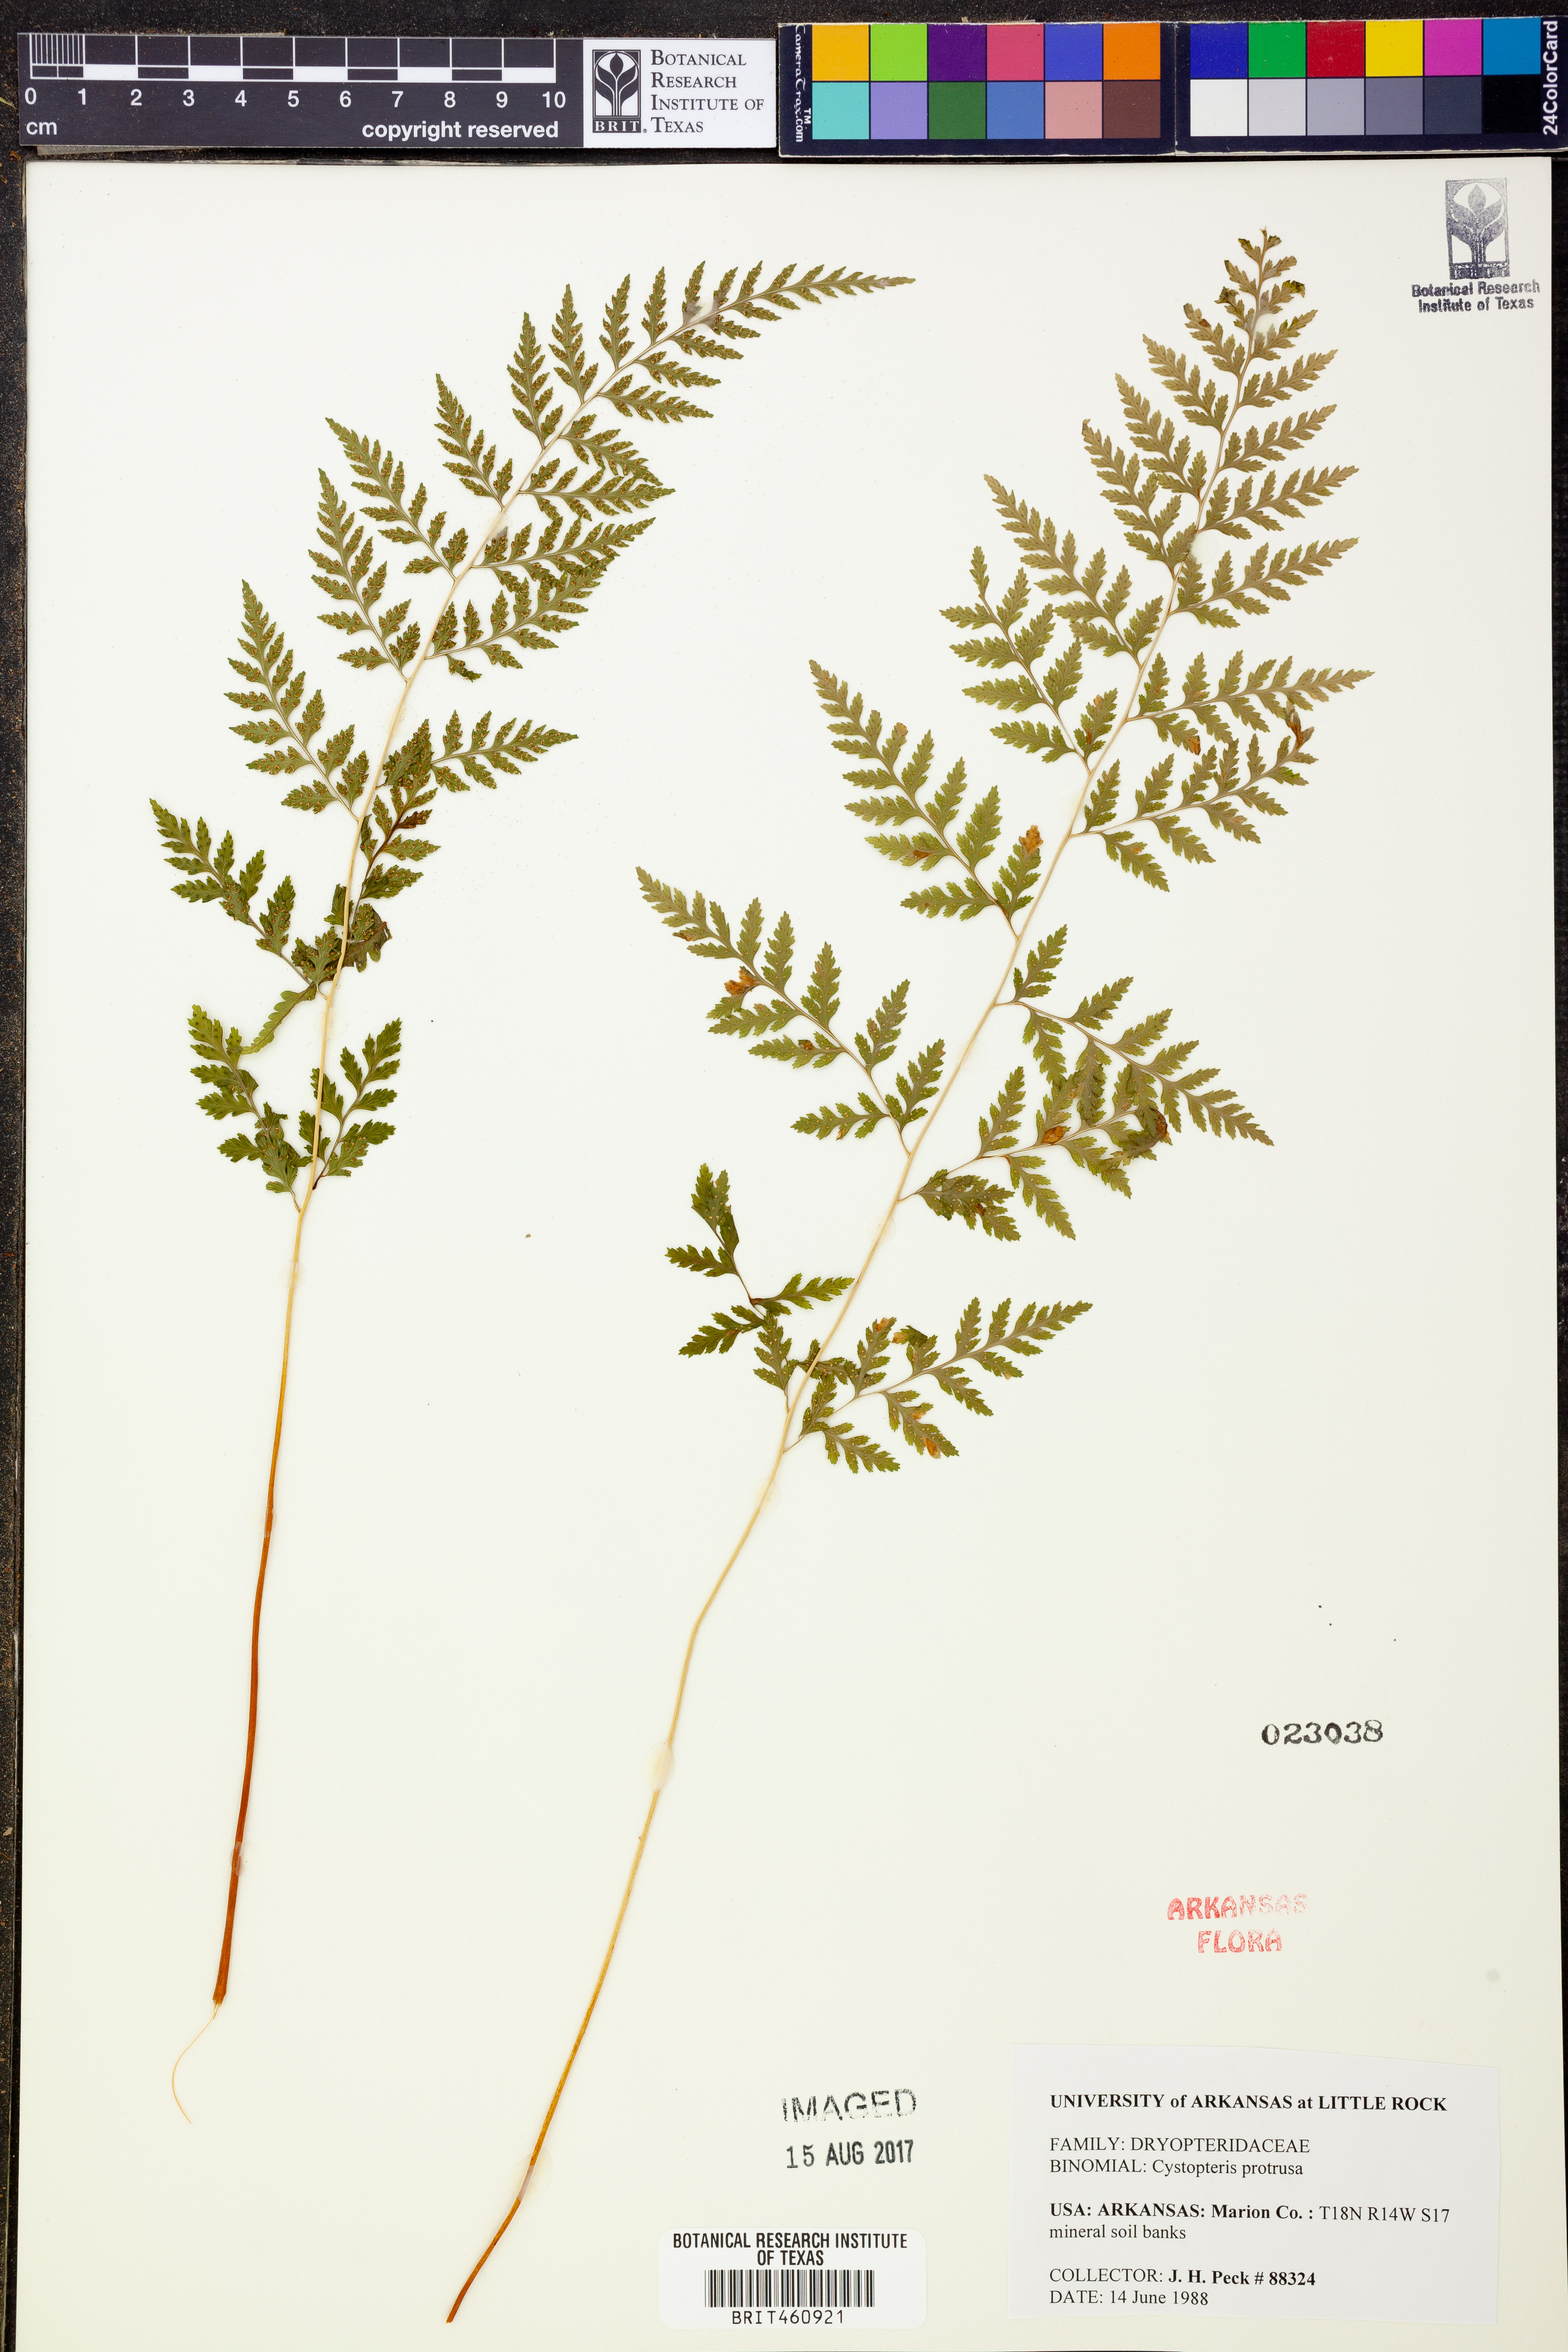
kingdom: Plantae
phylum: Tracheophyta
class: Polypodiopsida
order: Polypodiales
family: Cystopteridaceae
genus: Cystopteris
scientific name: Cystopteris protrusa
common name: Lowland brittle fern
